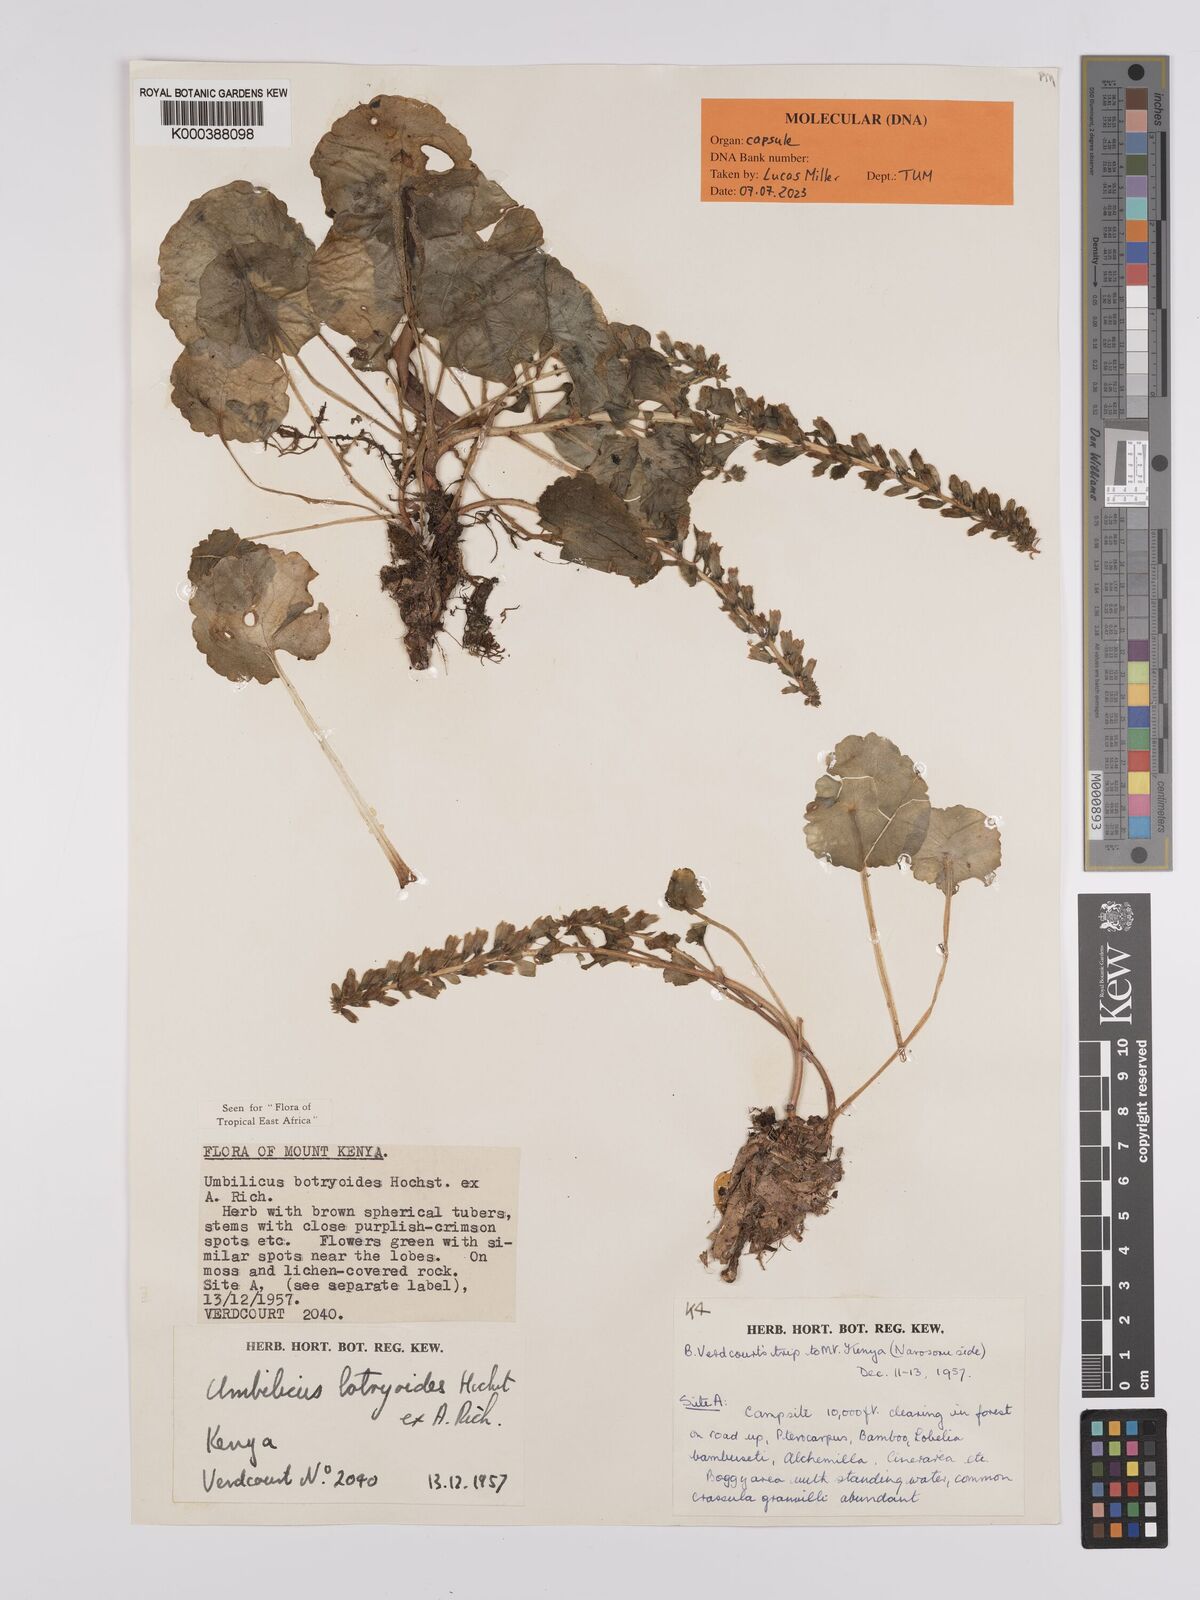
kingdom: Plantae
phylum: Tracheophyta
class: Magnoliopsida
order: Saxifragales
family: Crassulaceae
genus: Umbilicus
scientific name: Umbilicus botryoides
